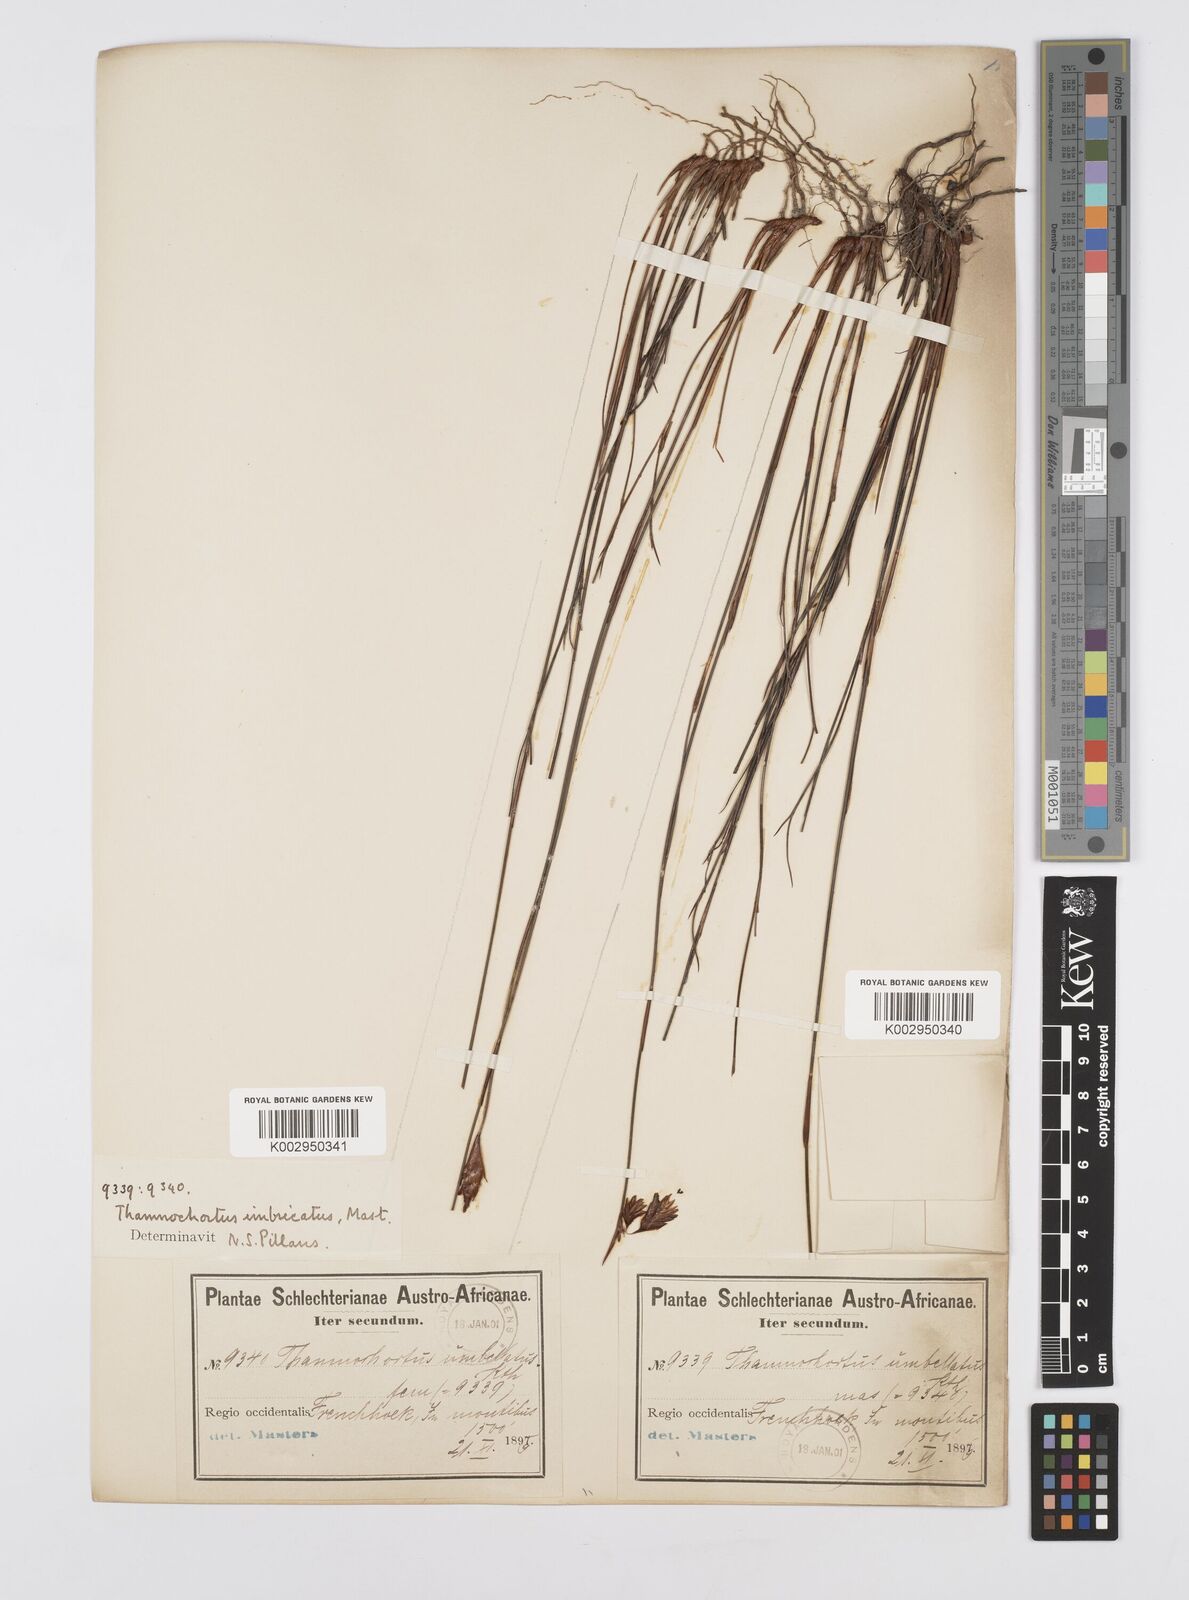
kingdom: Plantae
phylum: Tracheophyta
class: Liliopsida
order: Poales
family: Restionaceae
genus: Staberoha
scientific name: Staberoha distachyos
